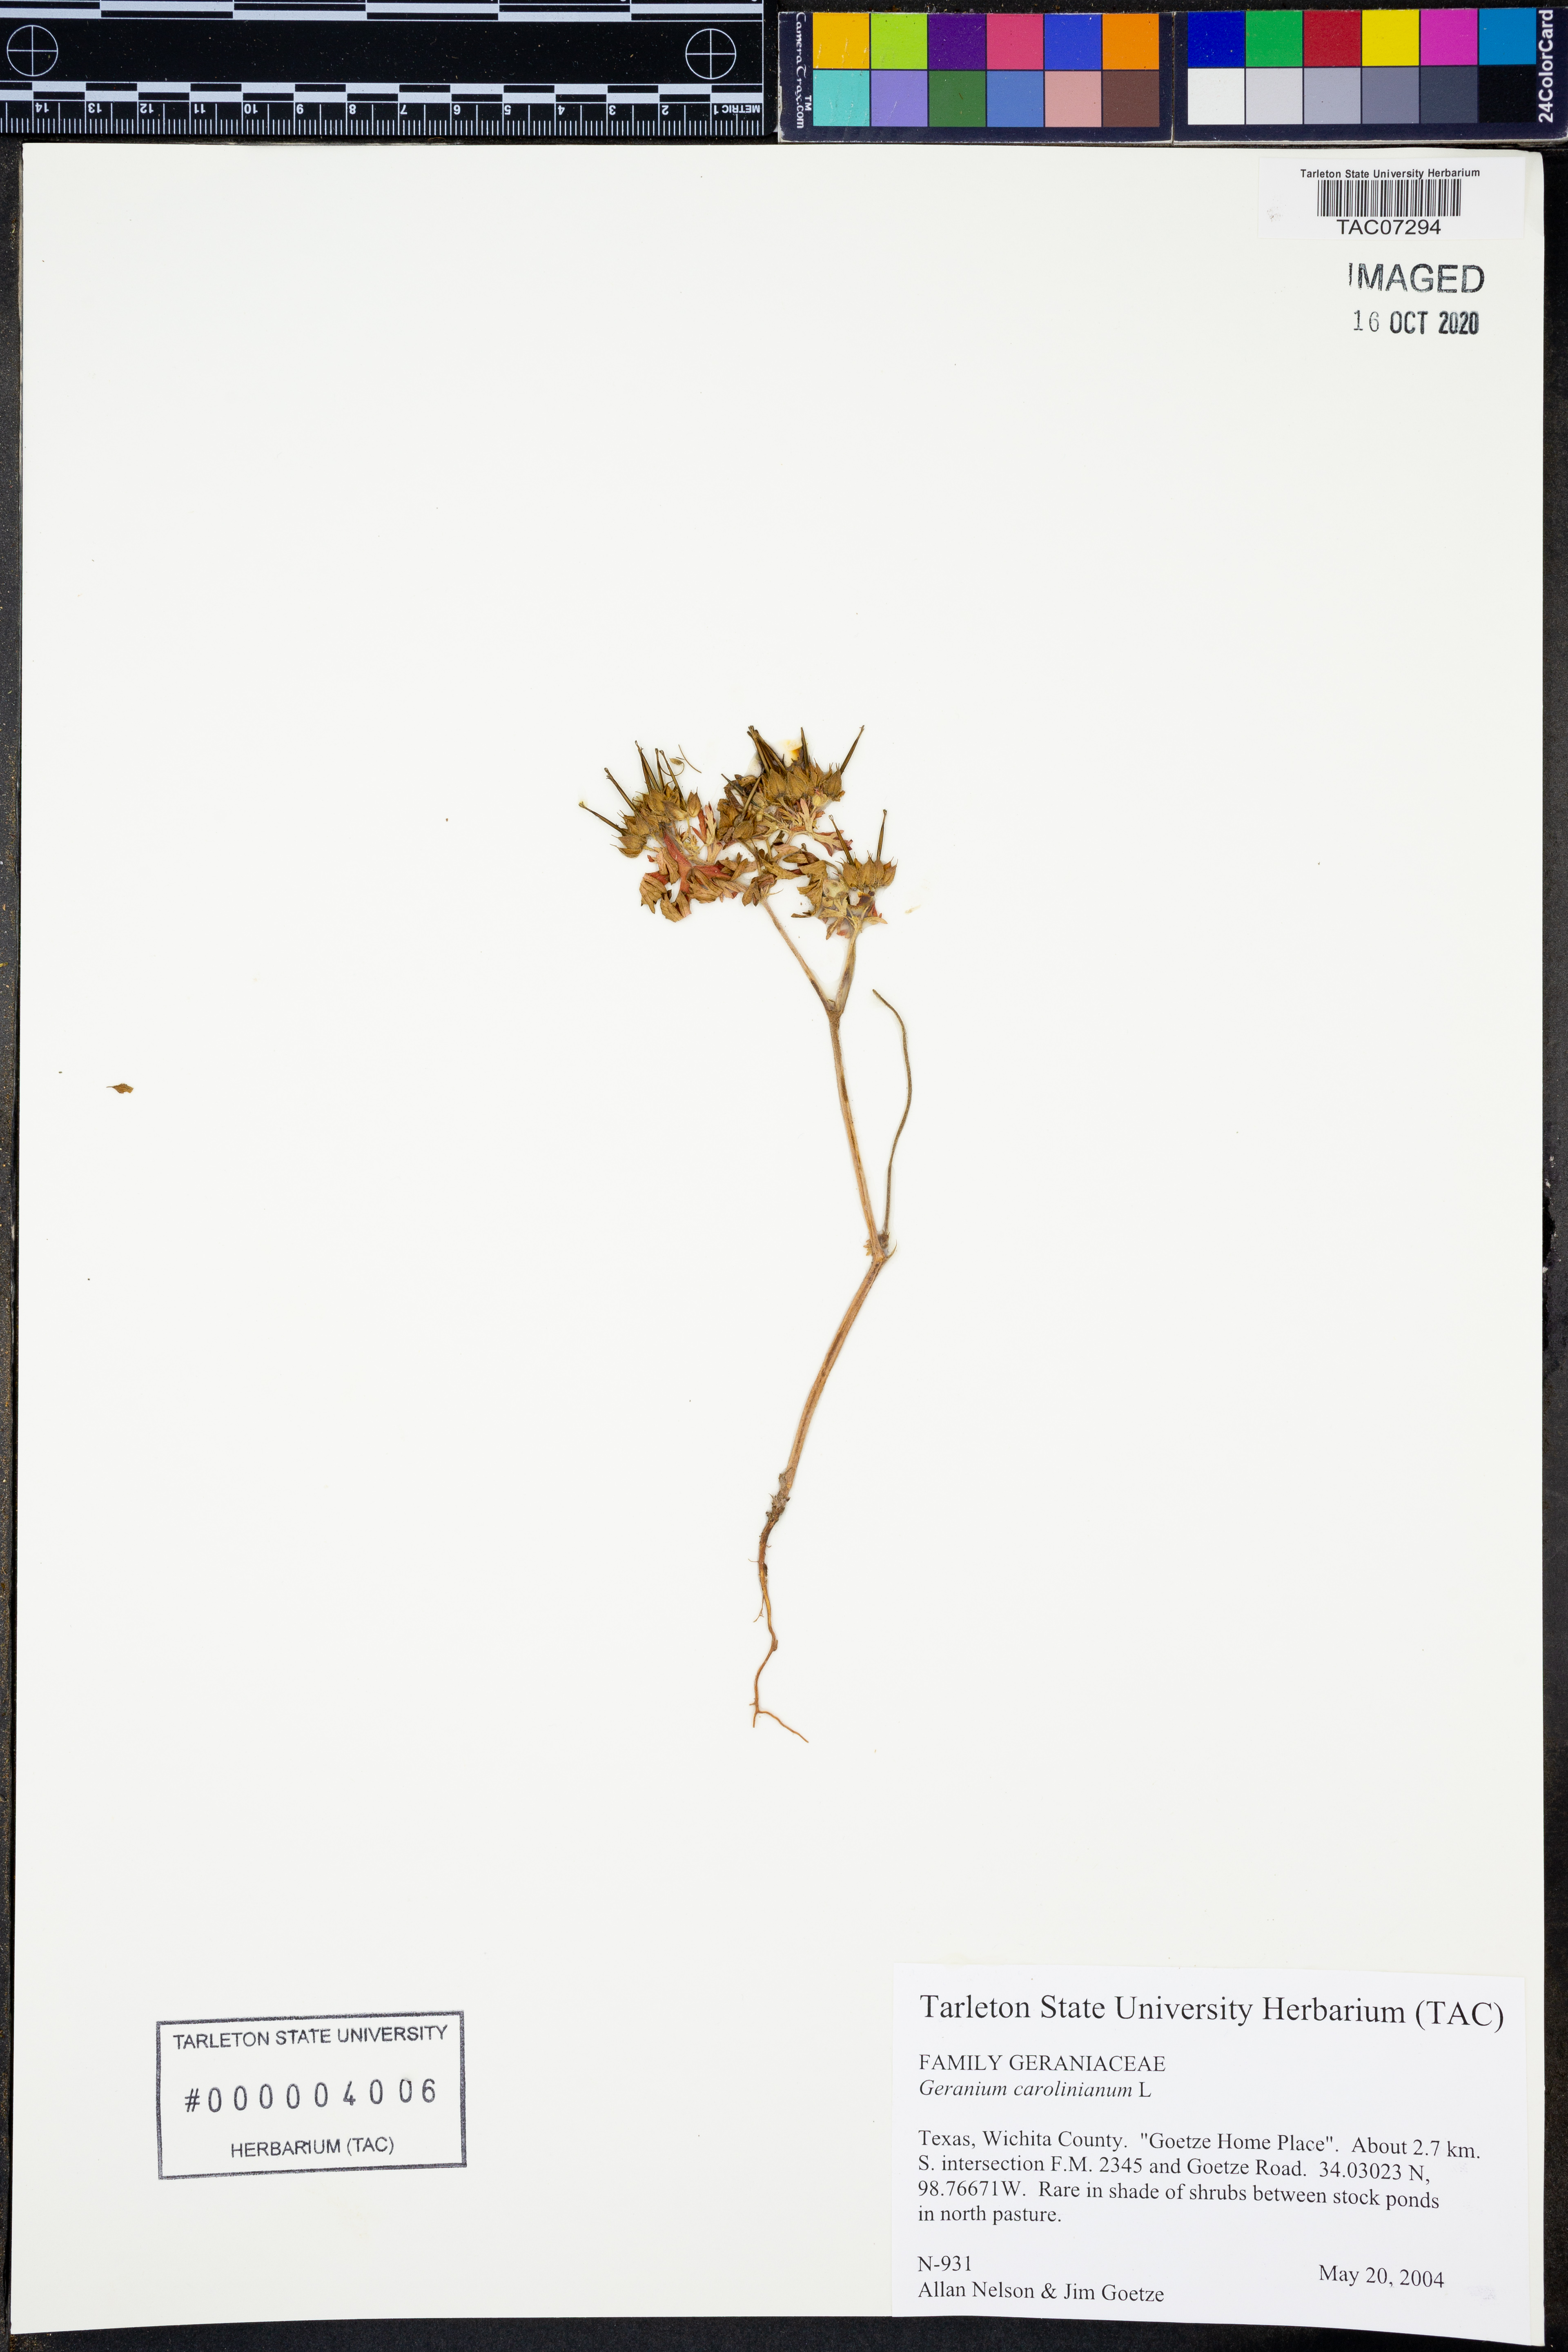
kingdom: Plantae
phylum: Tracheophyta
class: Magnoliopsida
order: Geraniales
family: Geraniaceae
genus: Geranium
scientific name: Geranium carolinianum
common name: Carolina crane's-bill
